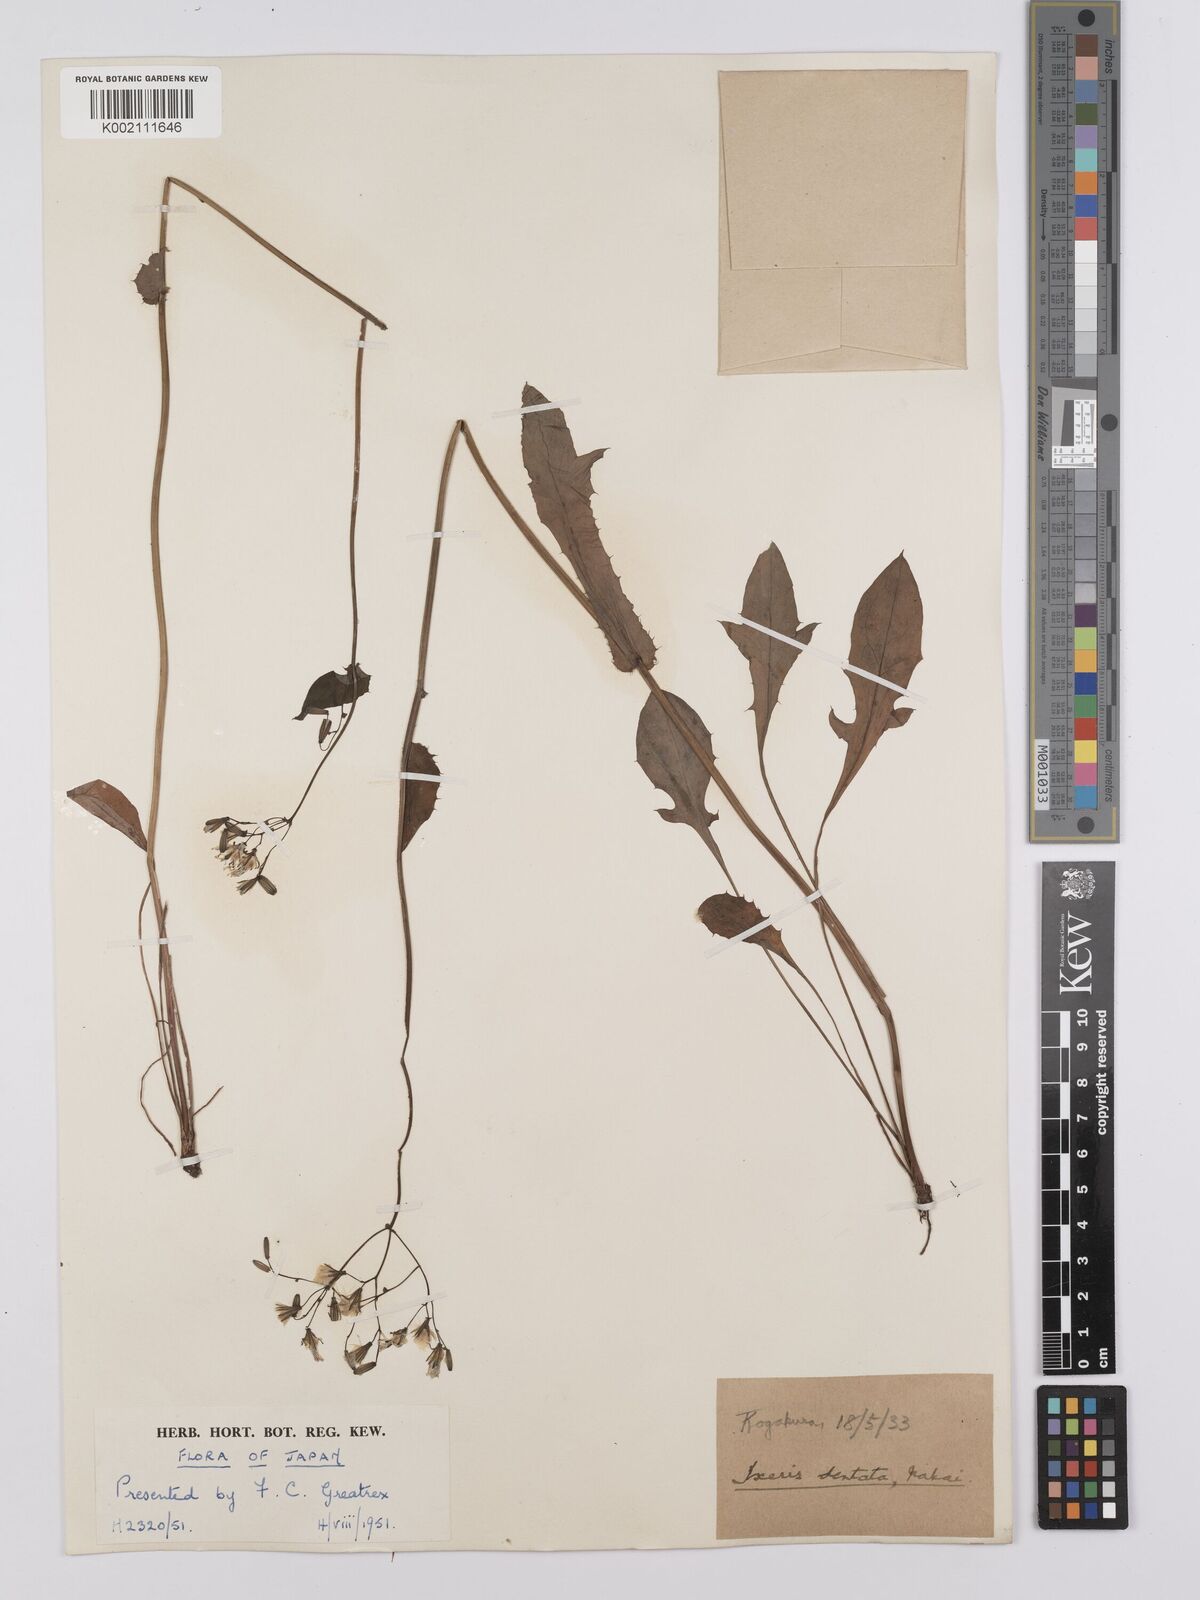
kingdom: Plantae
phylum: Tracheophyta
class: Magnoliopsida
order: Asterales
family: Asteraceae
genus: Ixeridium
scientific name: Ixeridium dentatum
